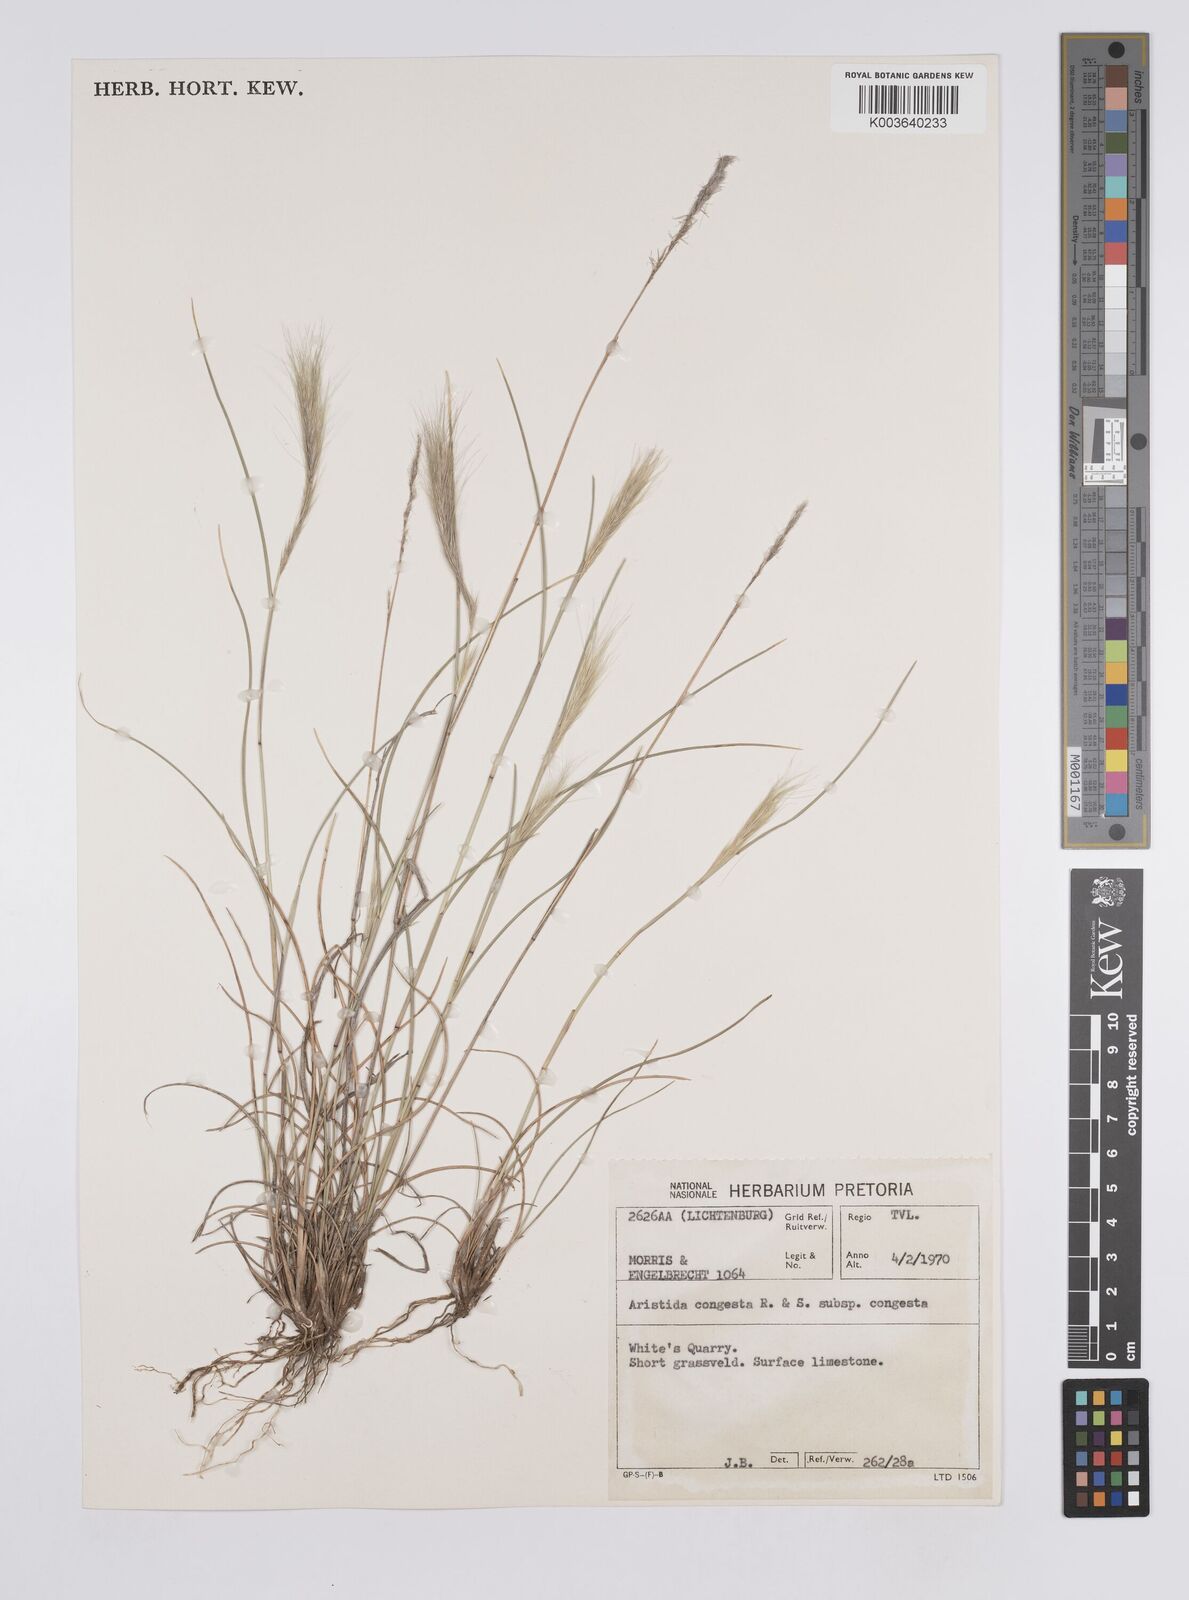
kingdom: Plantae
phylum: Tracheophyta
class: Liliopsida
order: Poales
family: Poaceae
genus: Aristida
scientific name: Aristida congesta
